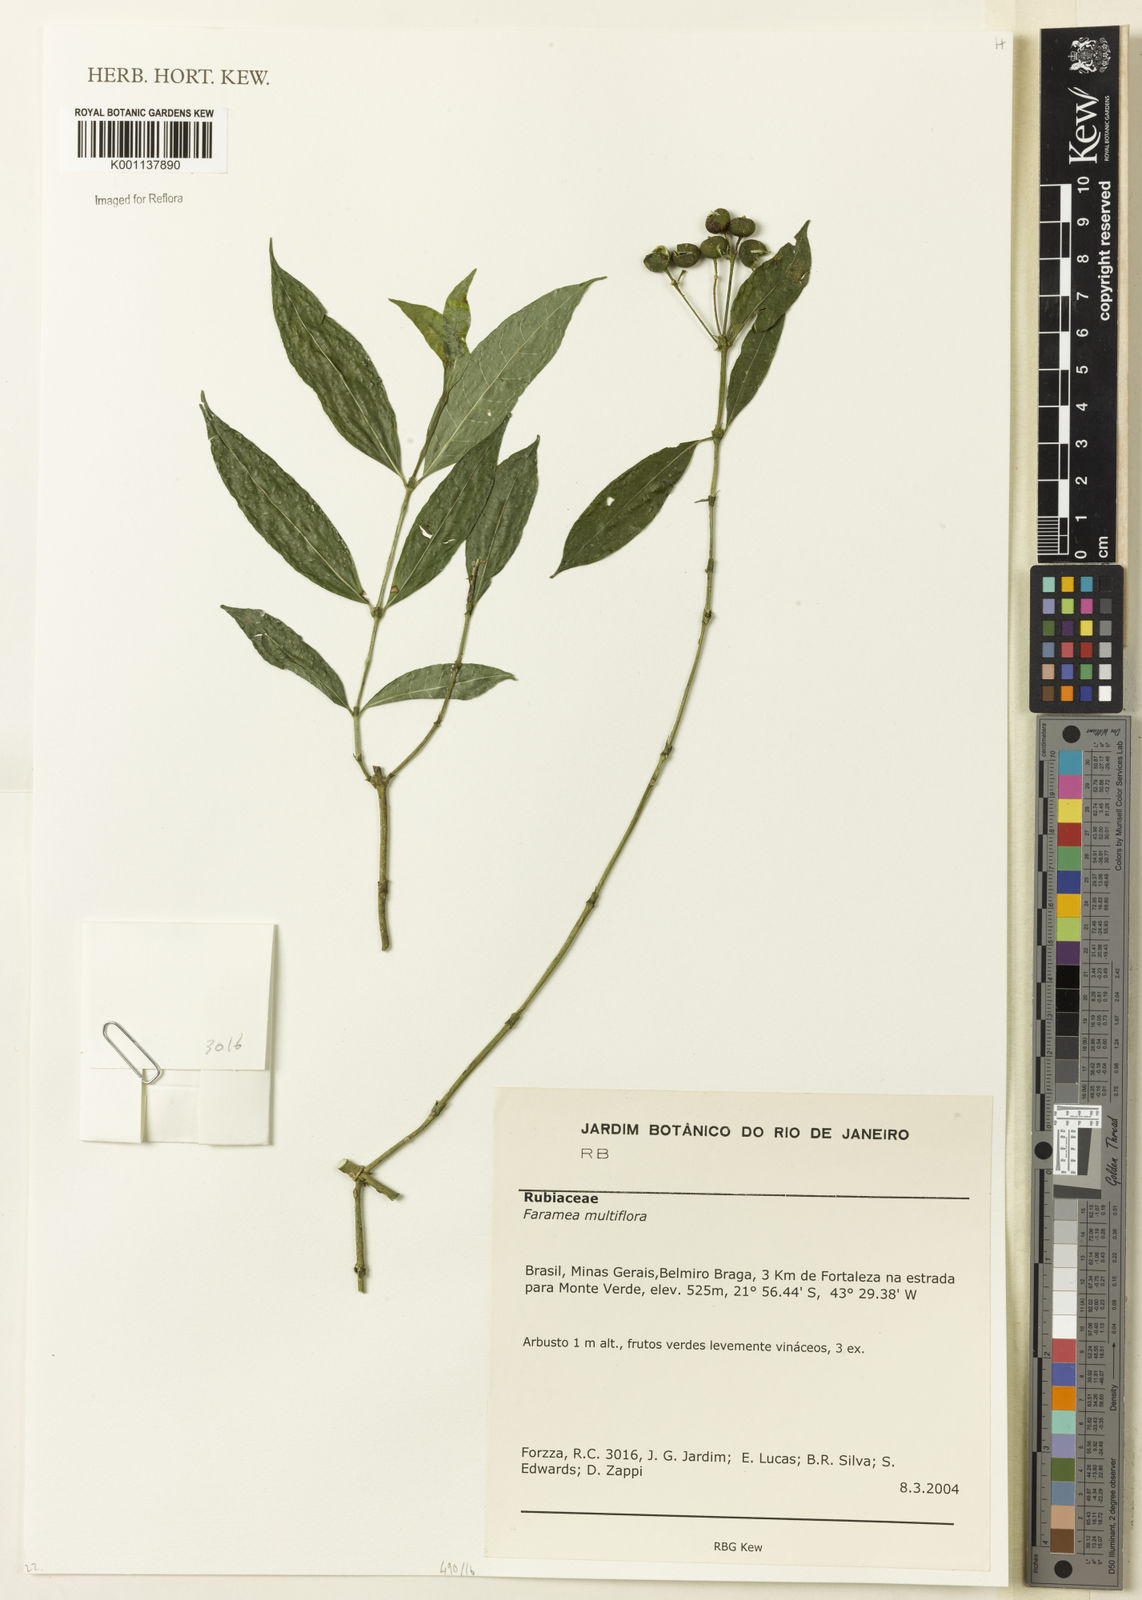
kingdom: Plantae
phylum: Tracheophyta
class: Magnoliopsida
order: Gentianales
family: Rubiaceae
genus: Faramea
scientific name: Faramea multiflora
